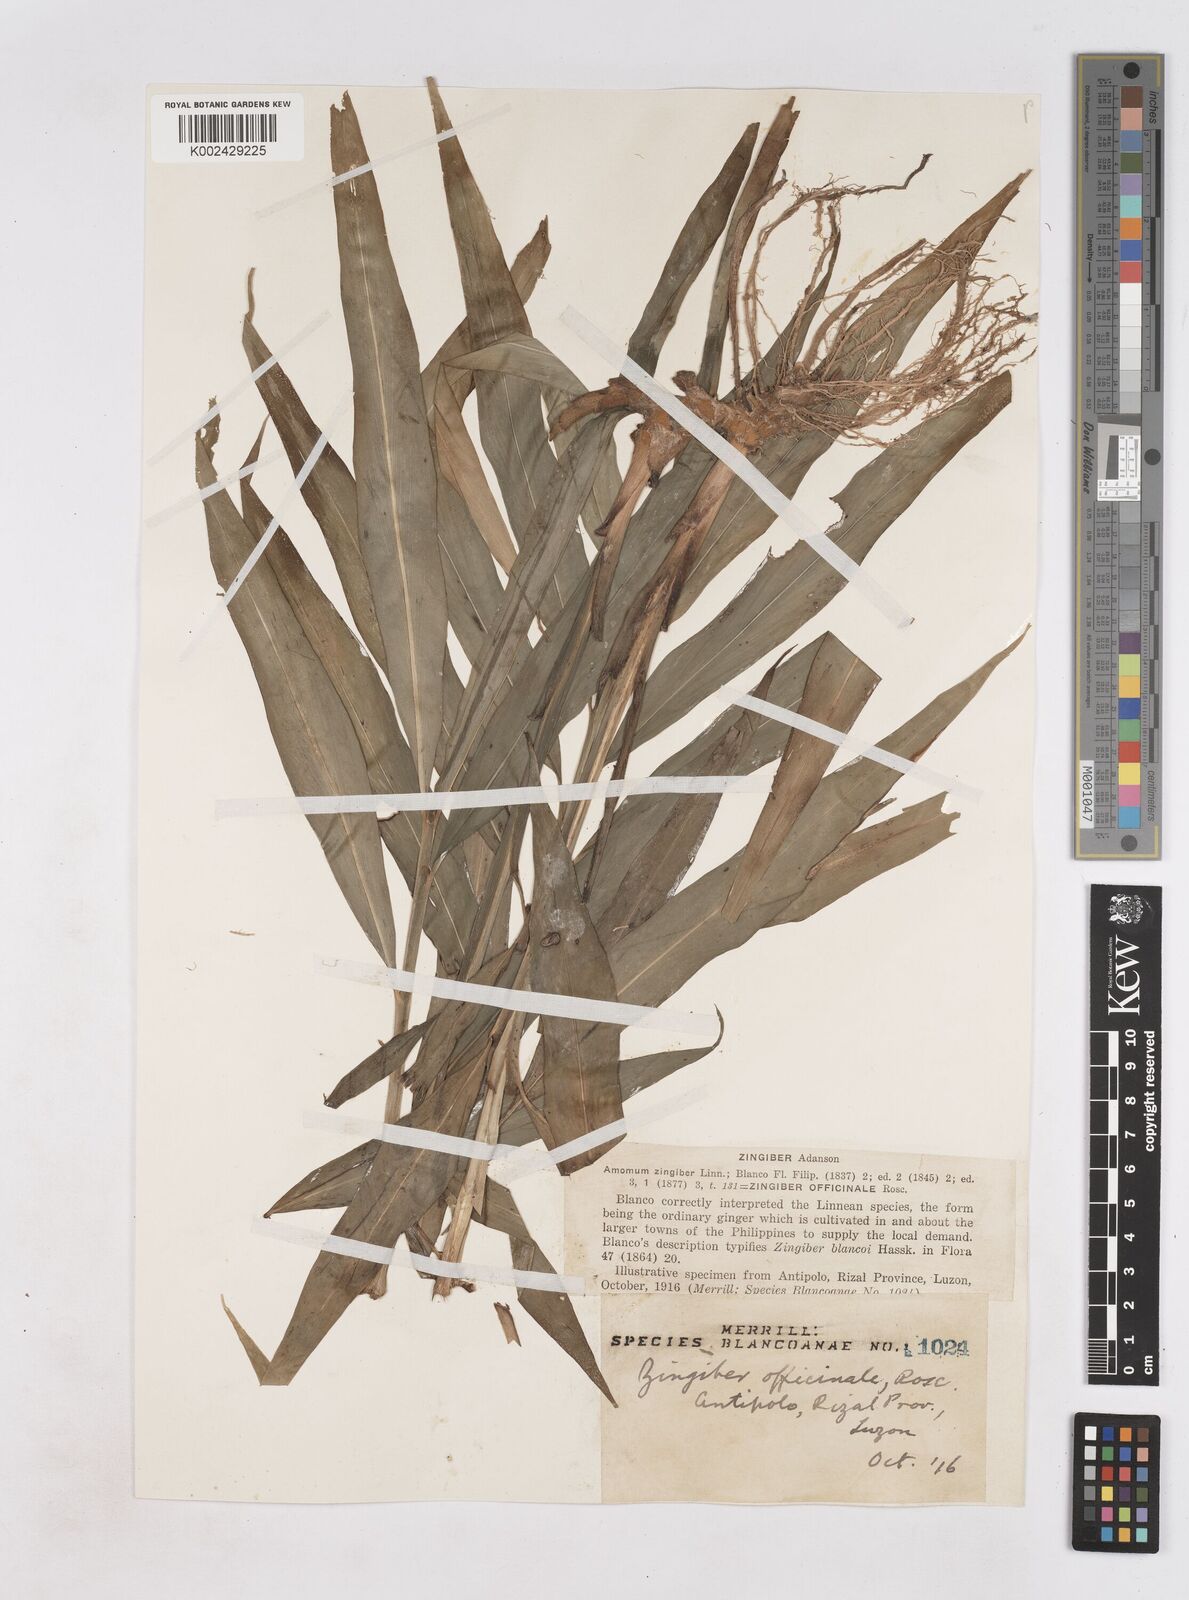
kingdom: Plantae
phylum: Tracheophyta
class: Liliopsida
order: Zingiberales
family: Zingiberaceae
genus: Zingiber
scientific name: Zingiber officinale
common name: Ginger
